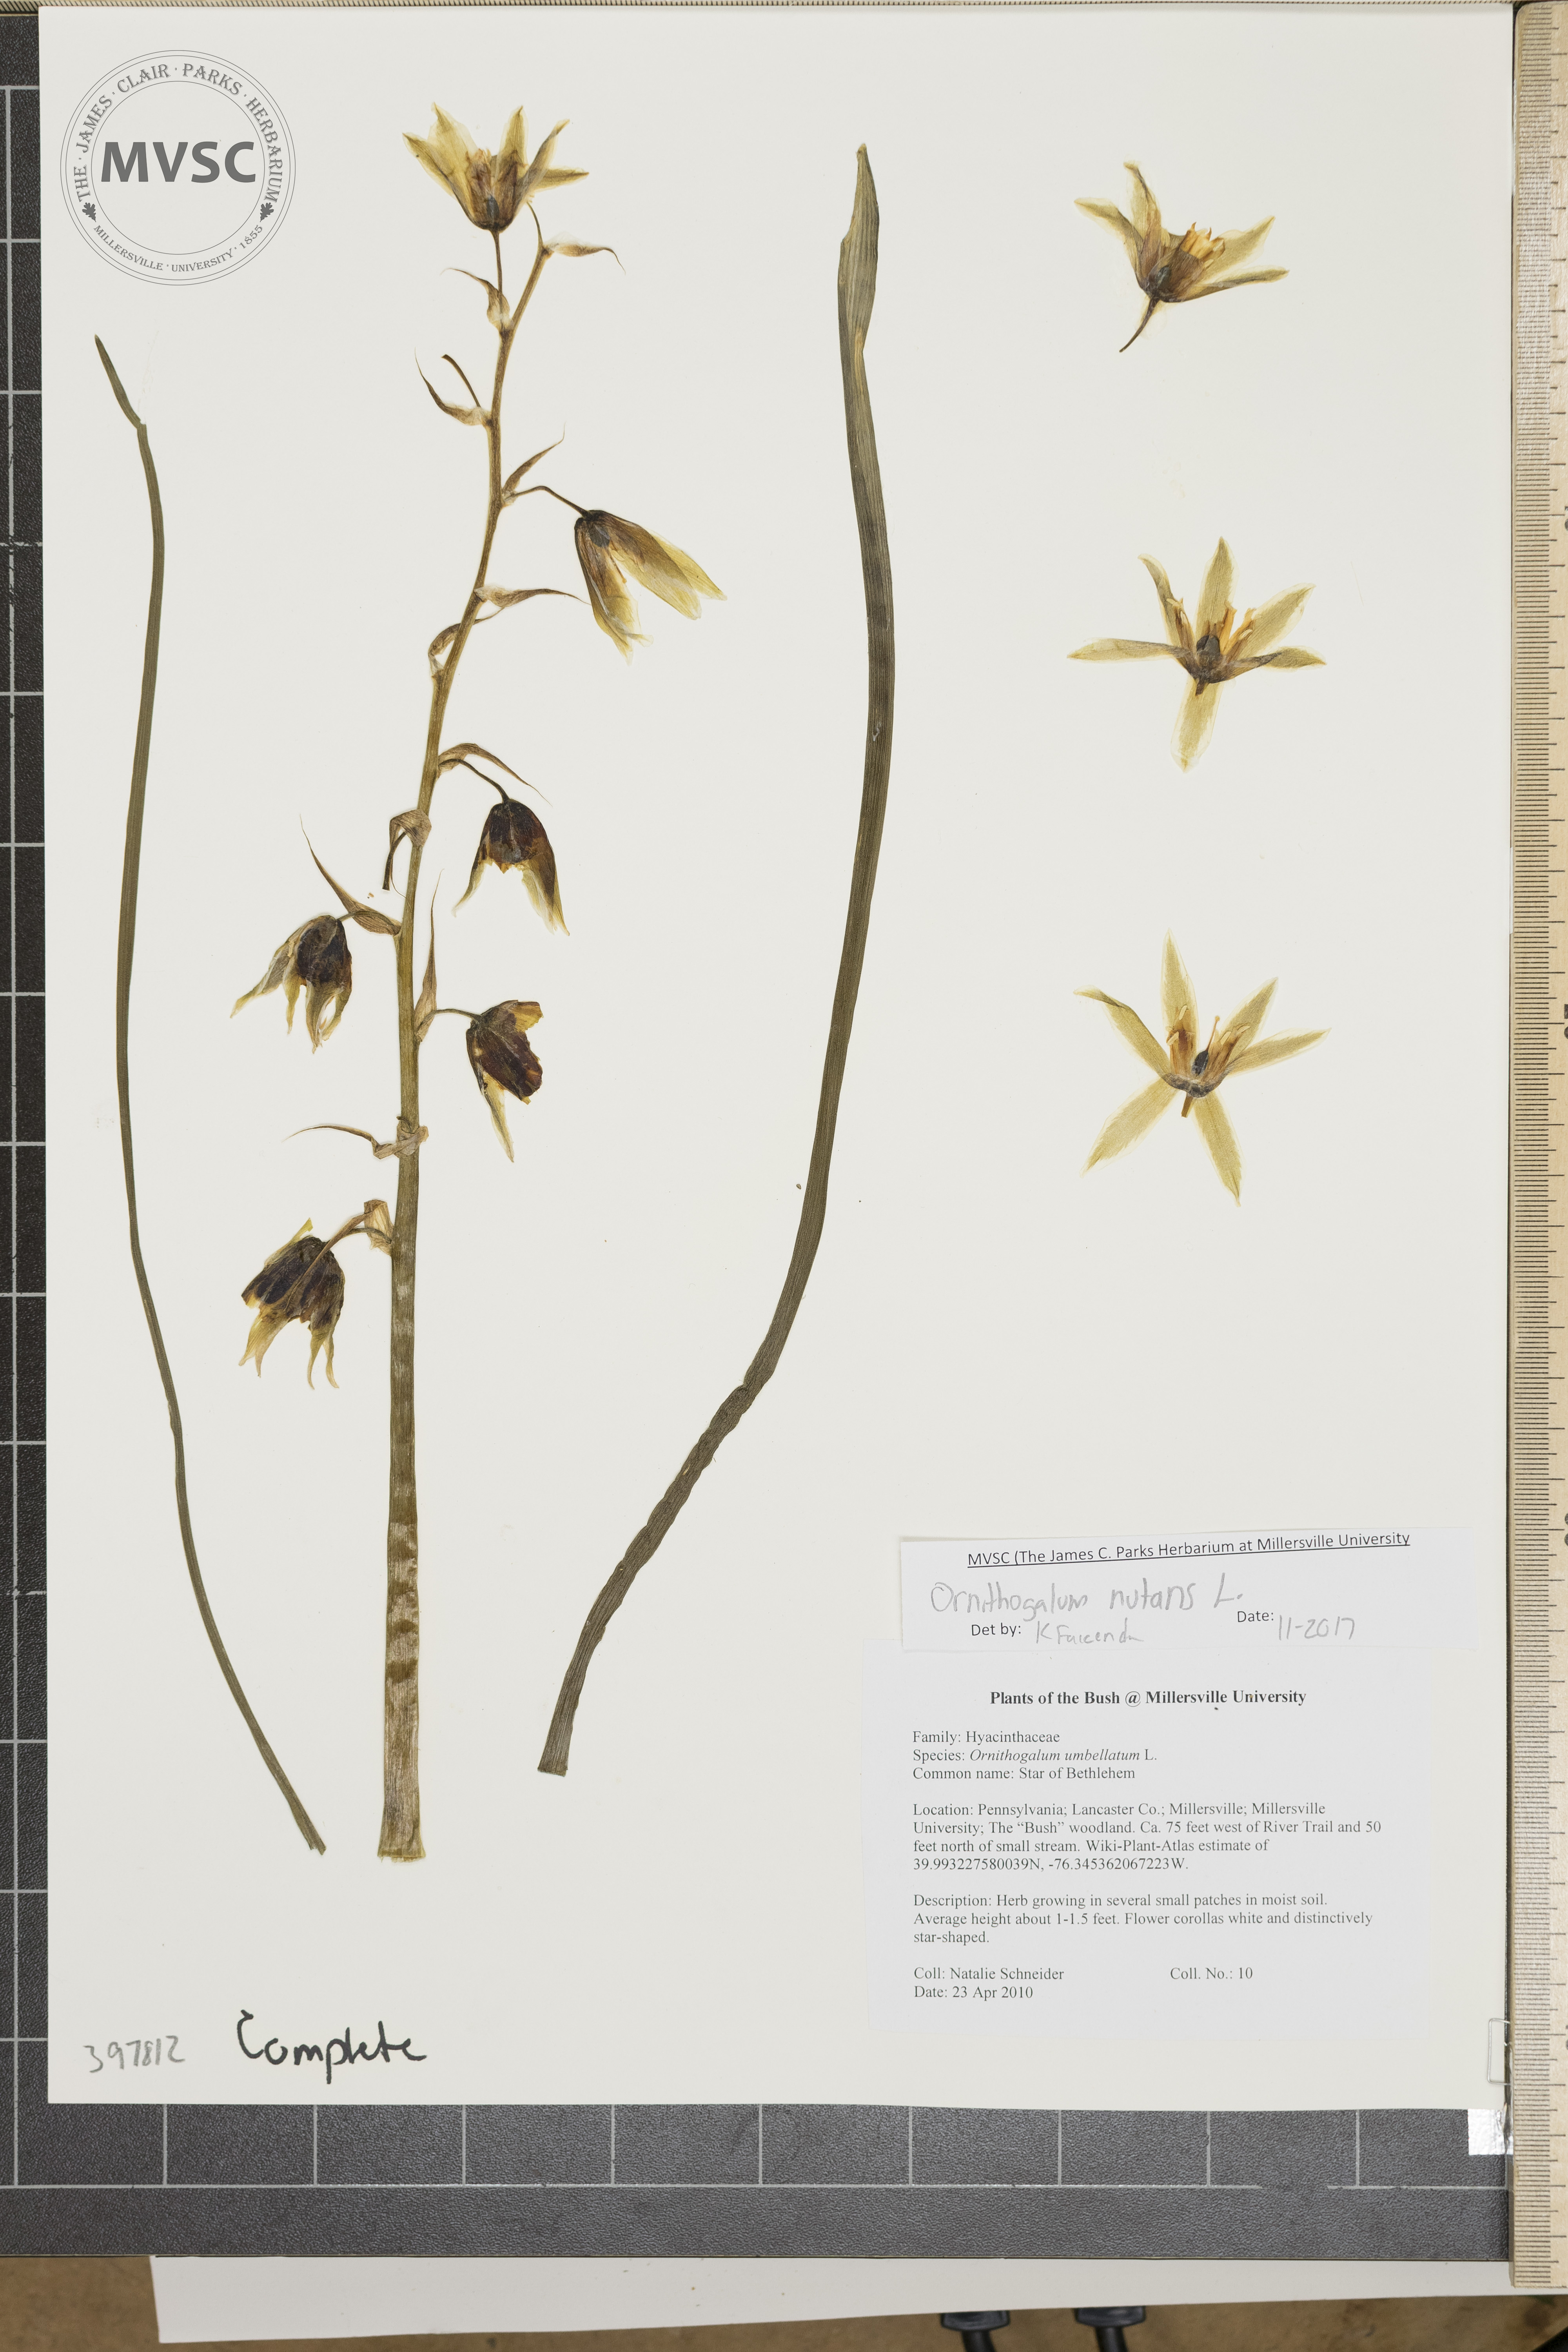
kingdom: Plantae
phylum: Tracheophyta
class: Liliopsida
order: Asparagales
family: Asparagaceae
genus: Ornithogalum
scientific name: Ornithogalum nutans
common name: Star-of-Bethlehem
